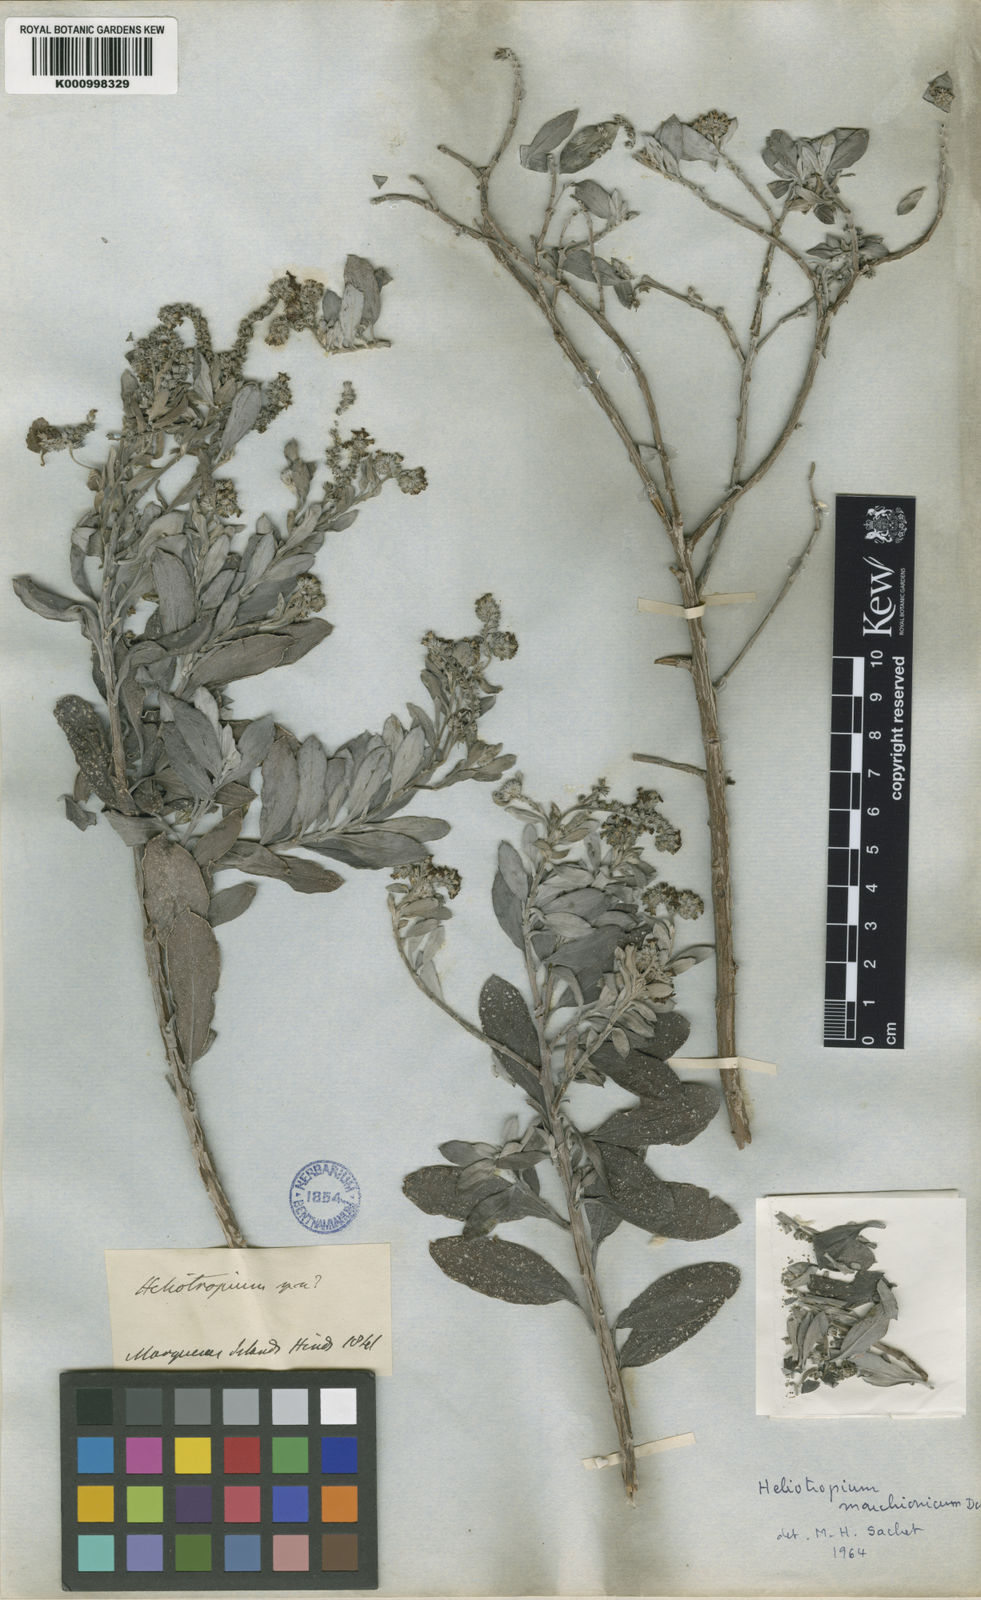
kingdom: Plantae
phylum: Tracheophyta
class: Magnoliopsida
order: Boraginales
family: Heliotropiaceae
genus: Euploca
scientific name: Euploca marchionica
